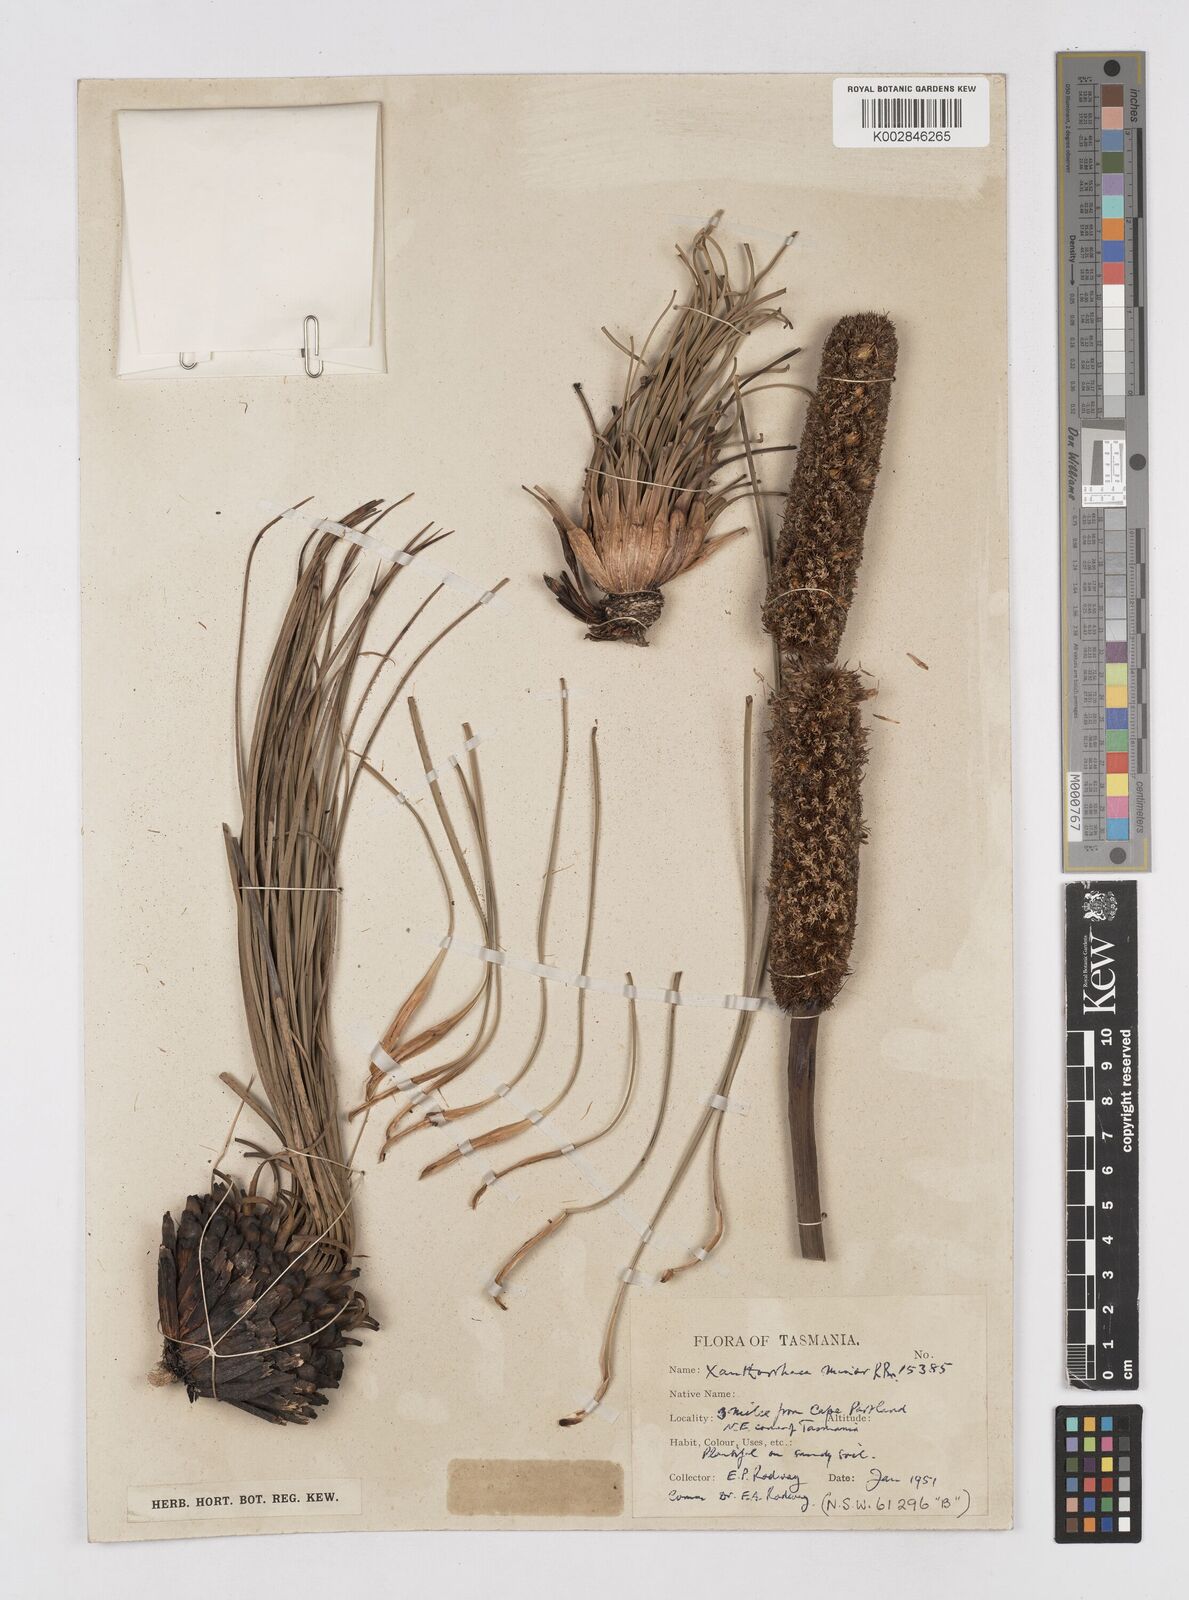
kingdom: Plantae
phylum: Tracheophyta
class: Liliopsida
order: Asparagales
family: Asphodelaceae
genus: Xanthorrhoea
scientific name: Xanthorrhoea minor
